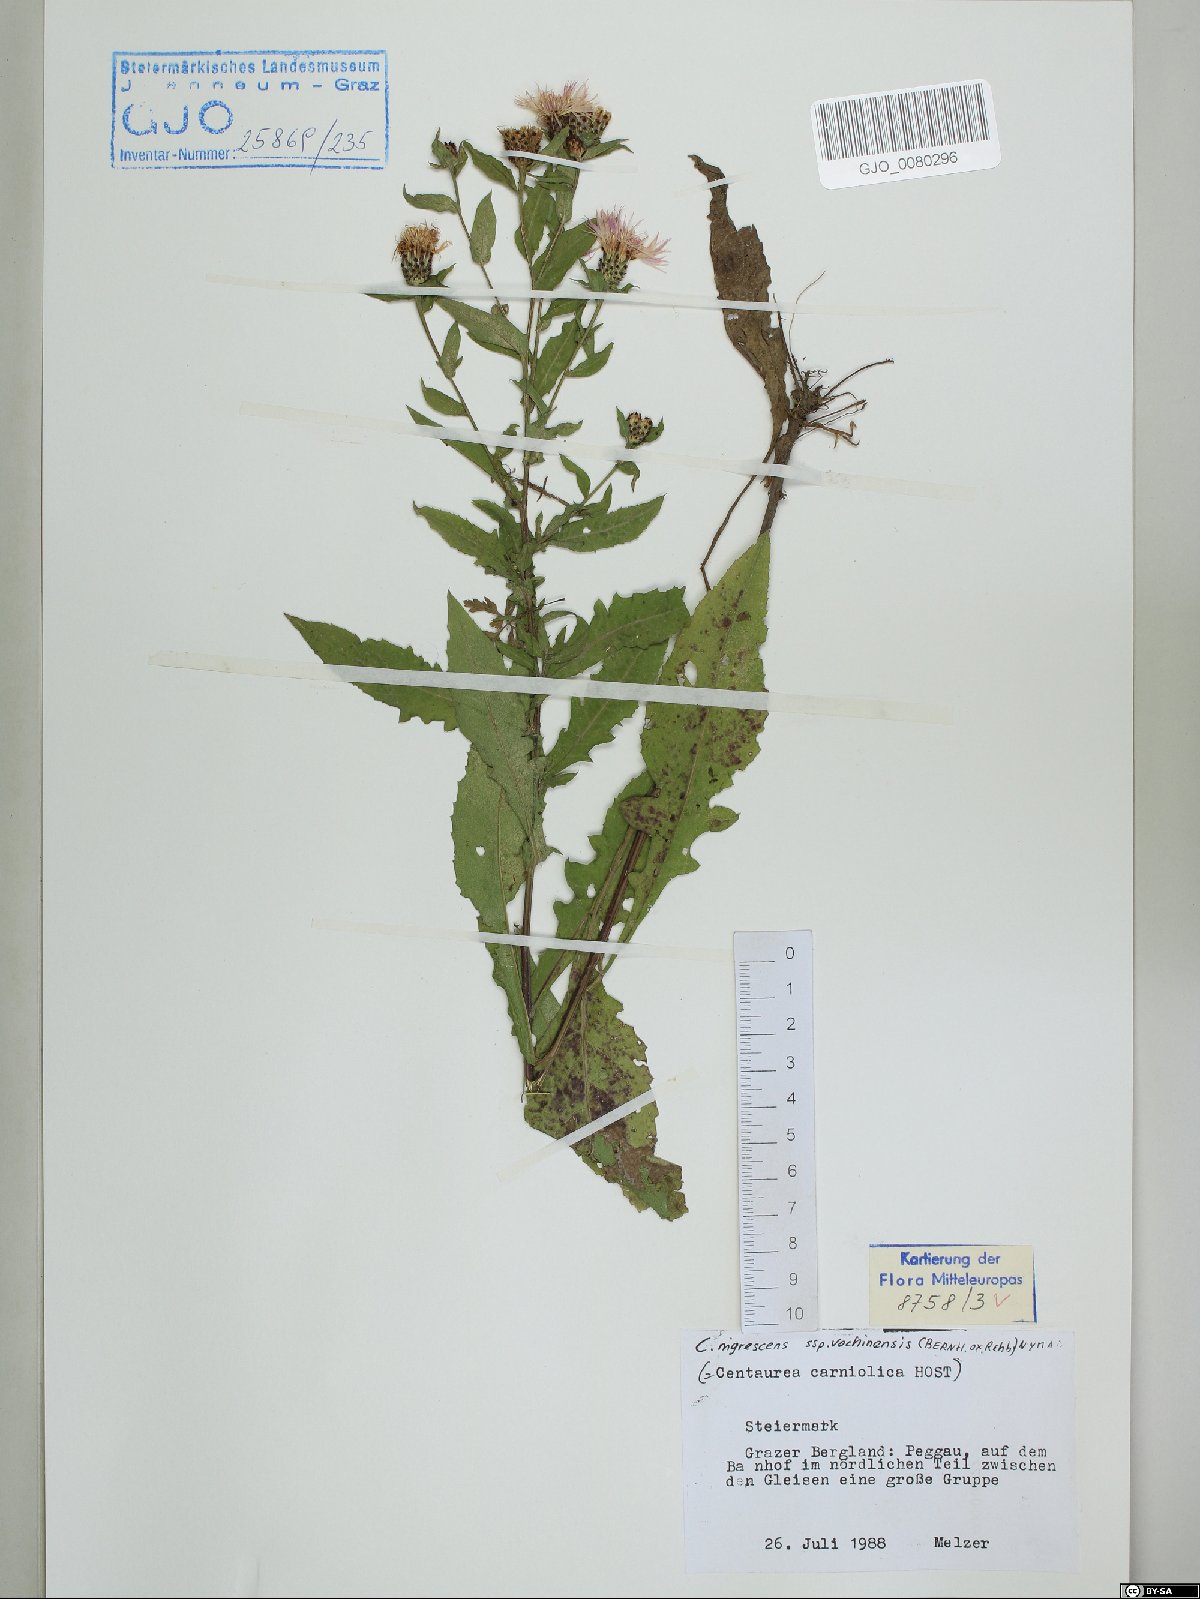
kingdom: Plantae
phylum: Tracheophyta
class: Magnoliopsida
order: Asterales
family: Asteraceae
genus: Centaurea
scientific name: Centaurea carniolica
